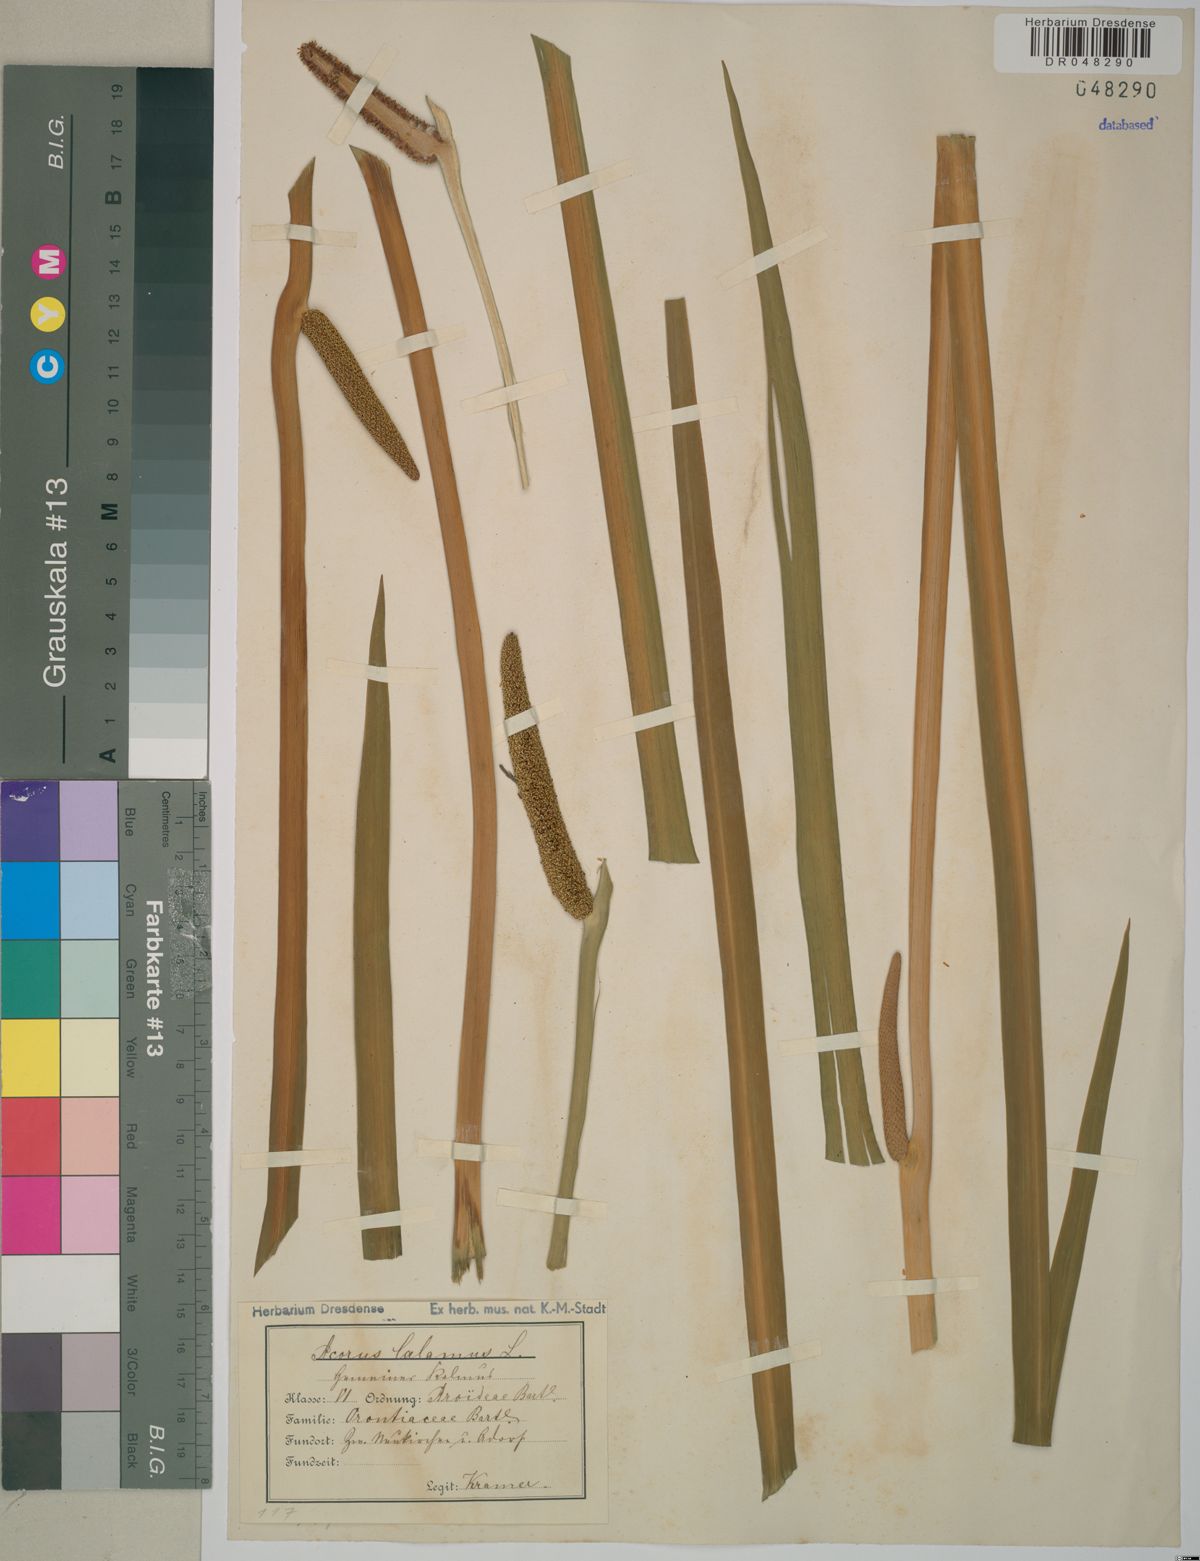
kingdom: Plantae
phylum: Tracheophyta
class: Liliopsida
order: Acorales
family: Acoraceae
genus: Acorus
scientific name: Acorus calamus
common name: Sweet-flag
